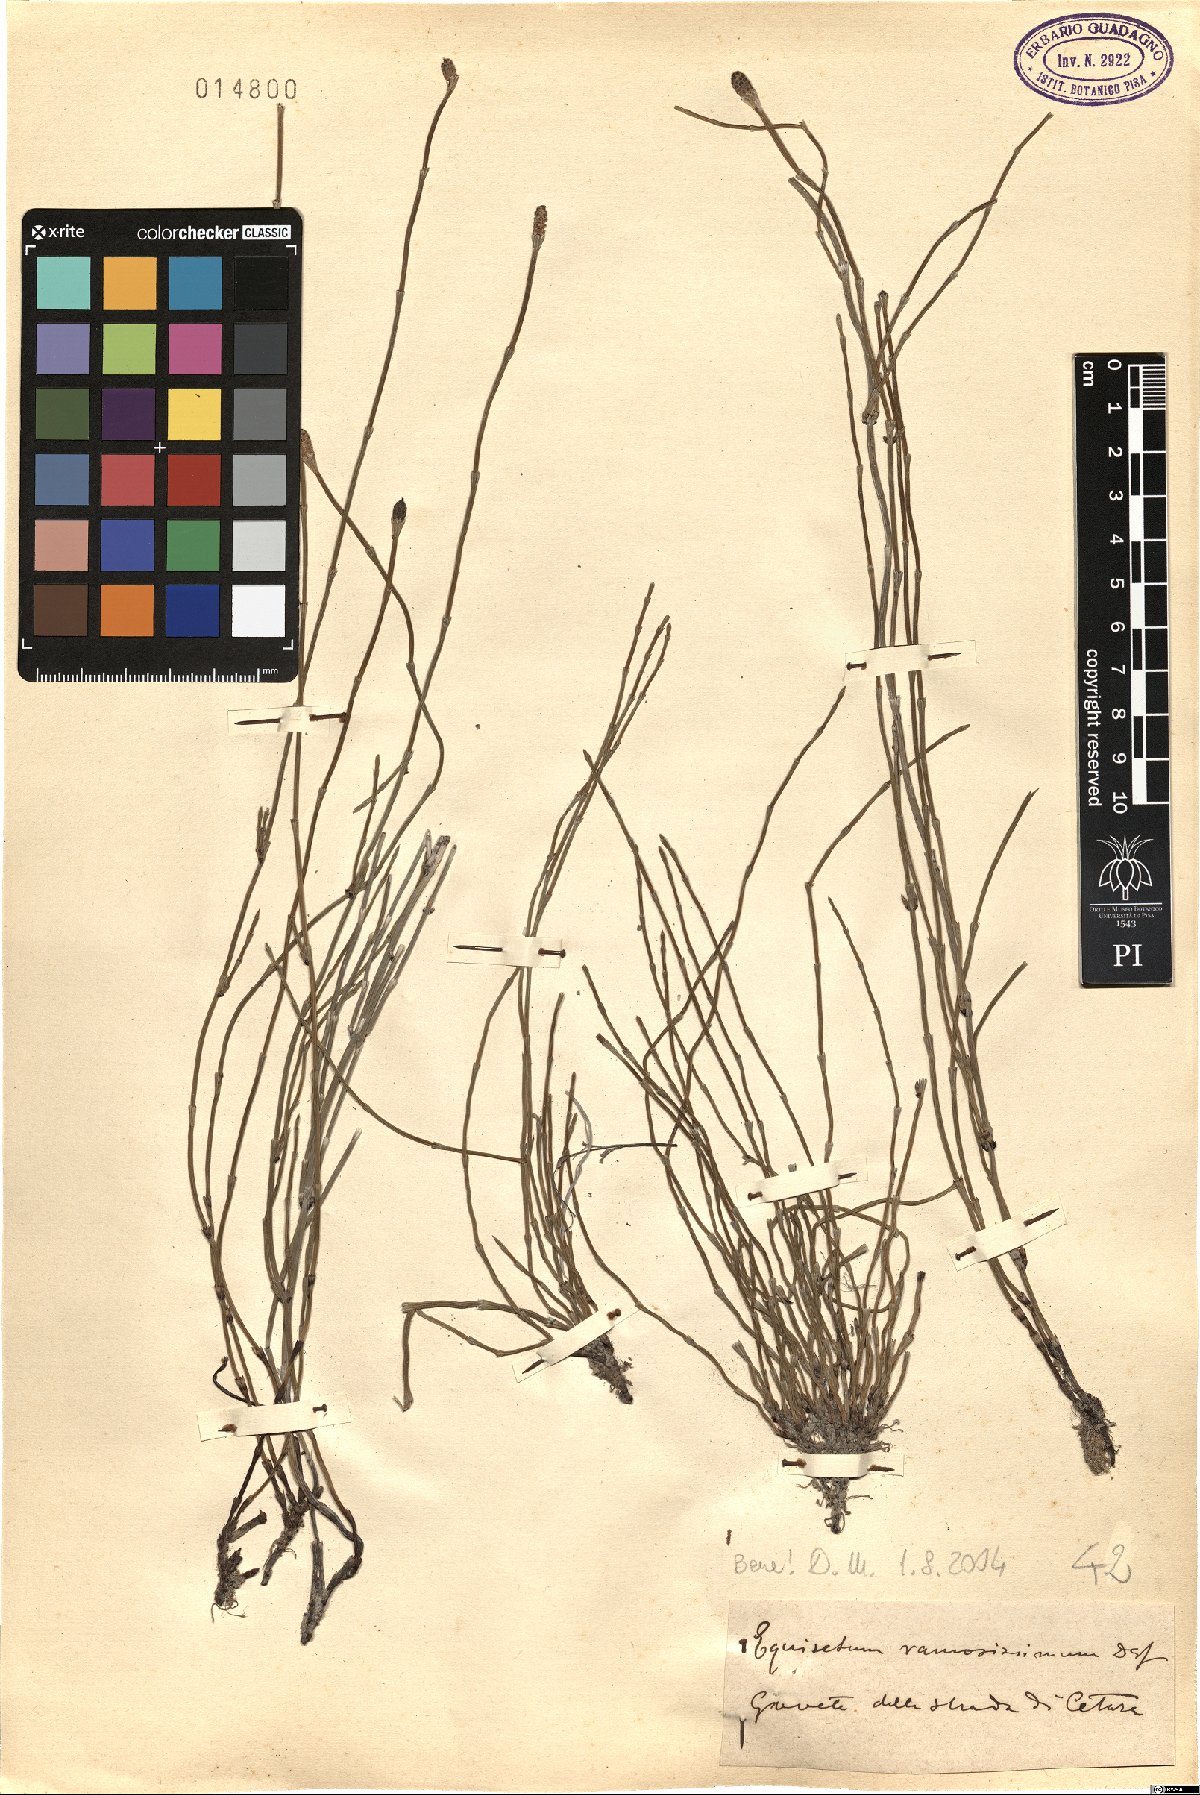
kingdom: Plantae
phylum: Tracheophyta
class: Polypodiopsida
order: Equisetales
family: Equisetaceae
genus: Equisetum
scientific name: Equisetum ramosissimum
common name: Branched horsetail
